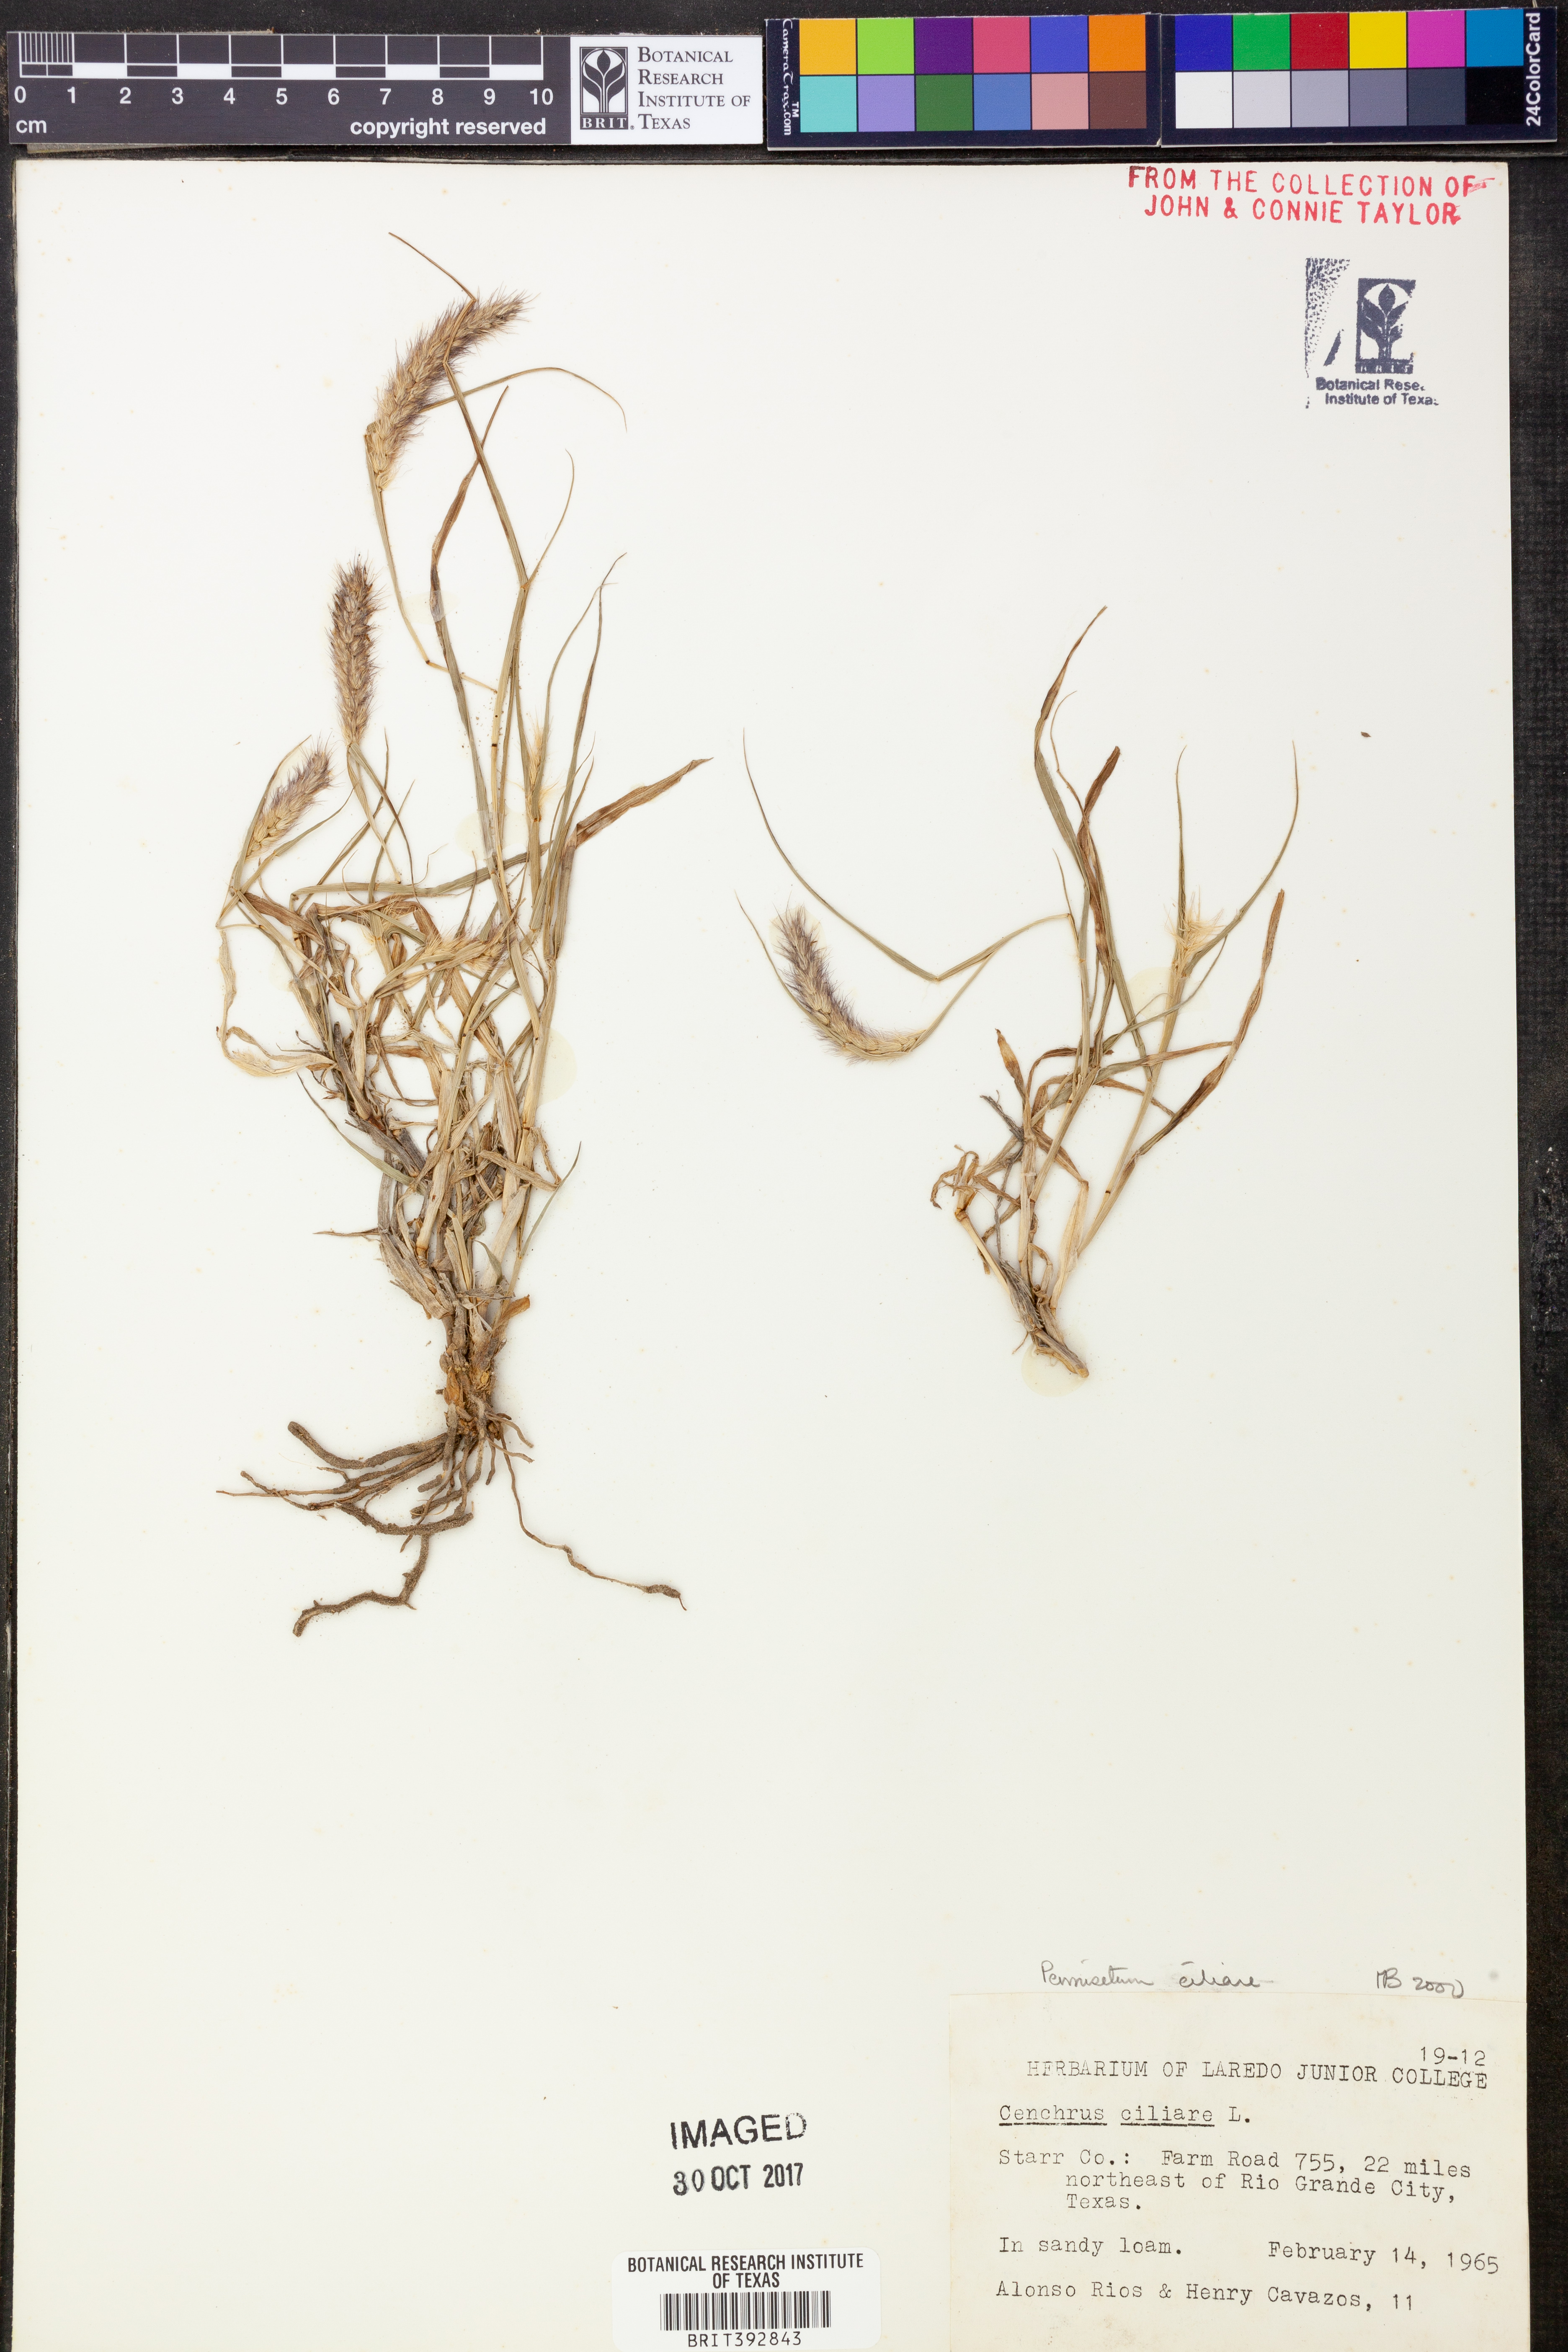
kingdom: Plantae
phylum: Tracheophyta
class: Liliopsida
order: Poales
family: Poaceae
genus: Cenchrus
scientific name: Cenchrus ciliaris
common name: Buffelgrass
